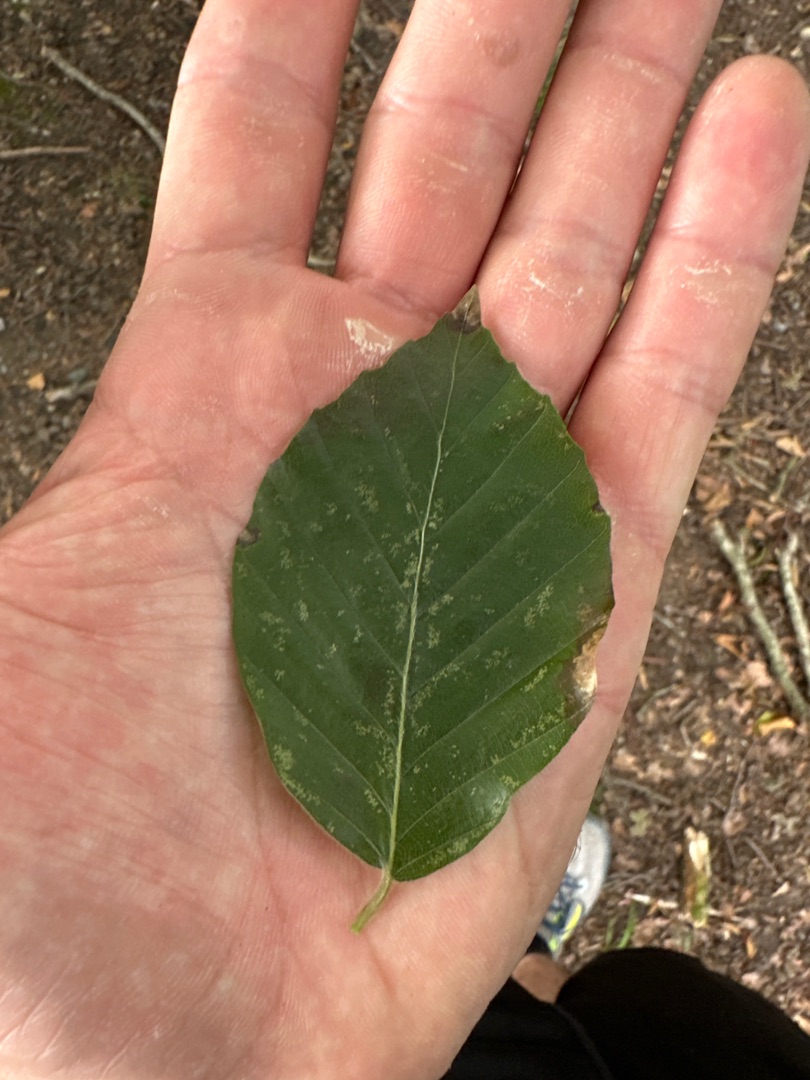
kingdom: Plantae
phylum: Tracheophyta
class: Magnoliopsida
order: Fagales
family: Fagaceae
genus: Fagus
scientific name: Fagus sylvatica
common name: Bøg
